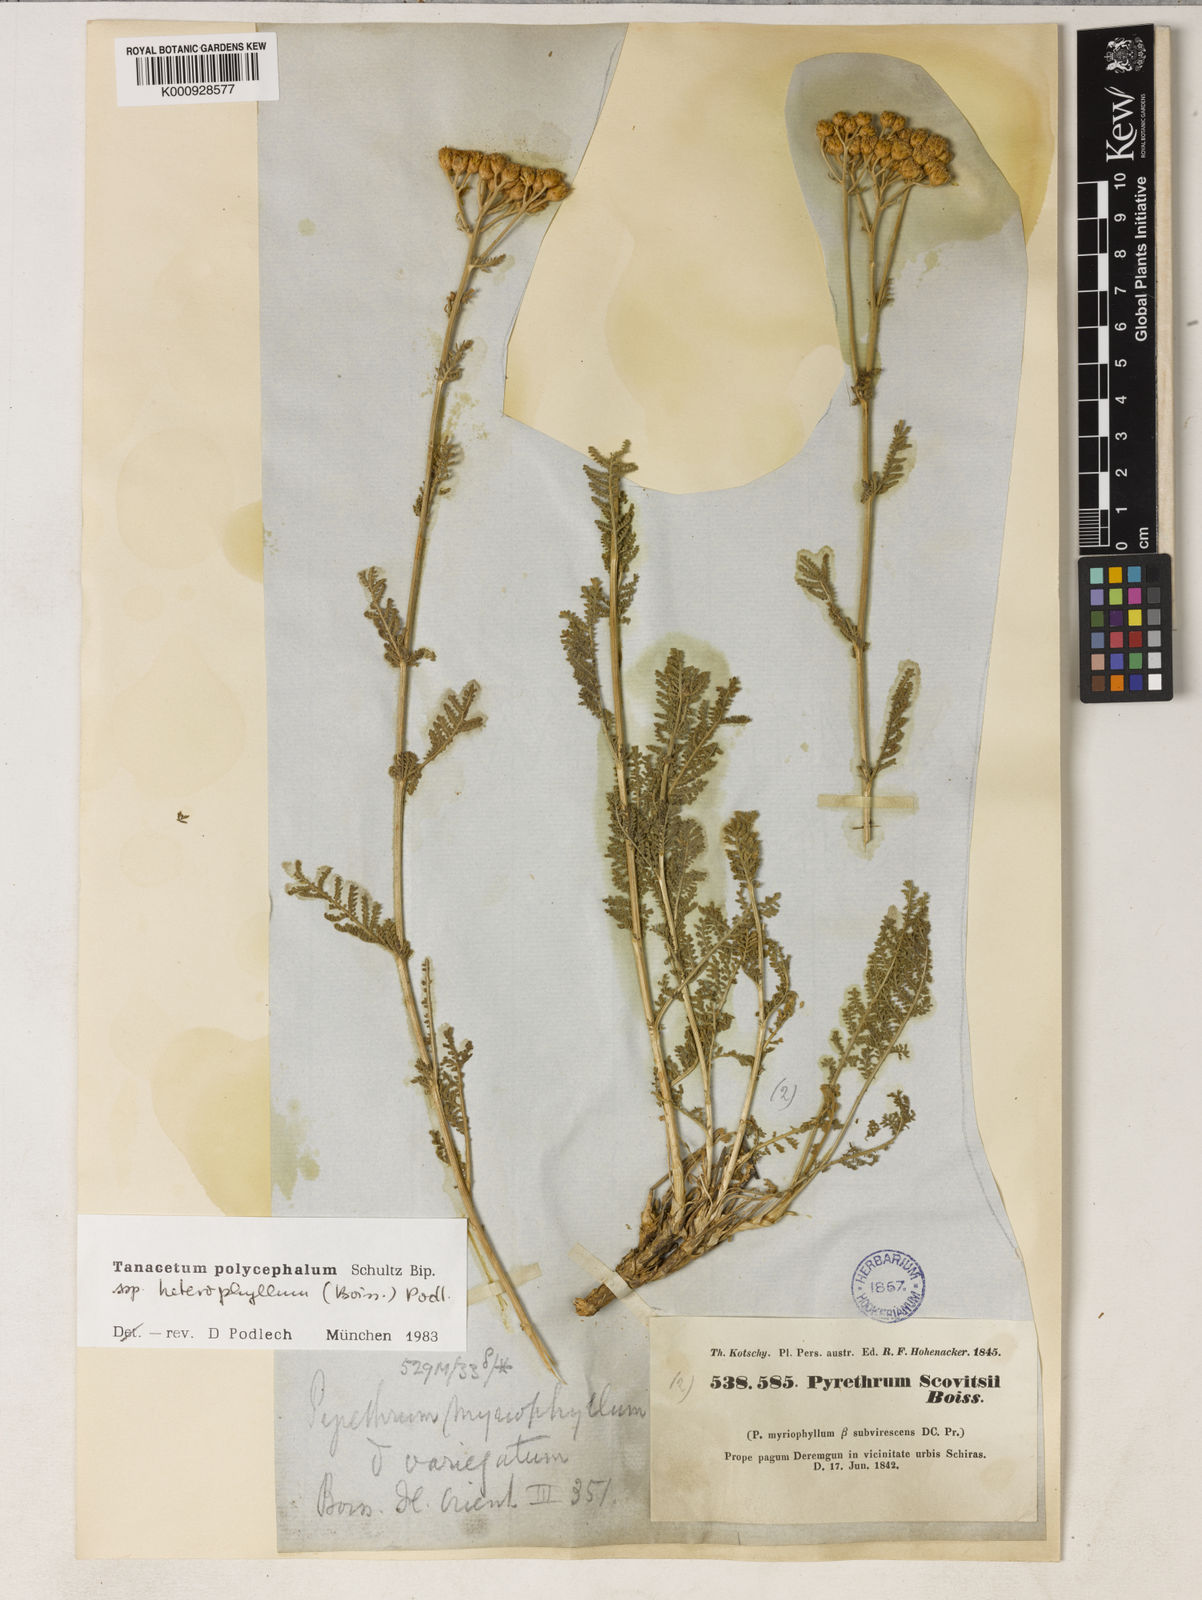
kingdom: Plantae
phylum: Tracheophyta
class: Magnoliopsida
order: Asterales
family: Asteraceae
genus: Tanacetum
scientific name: Tanacetum polycephalum
